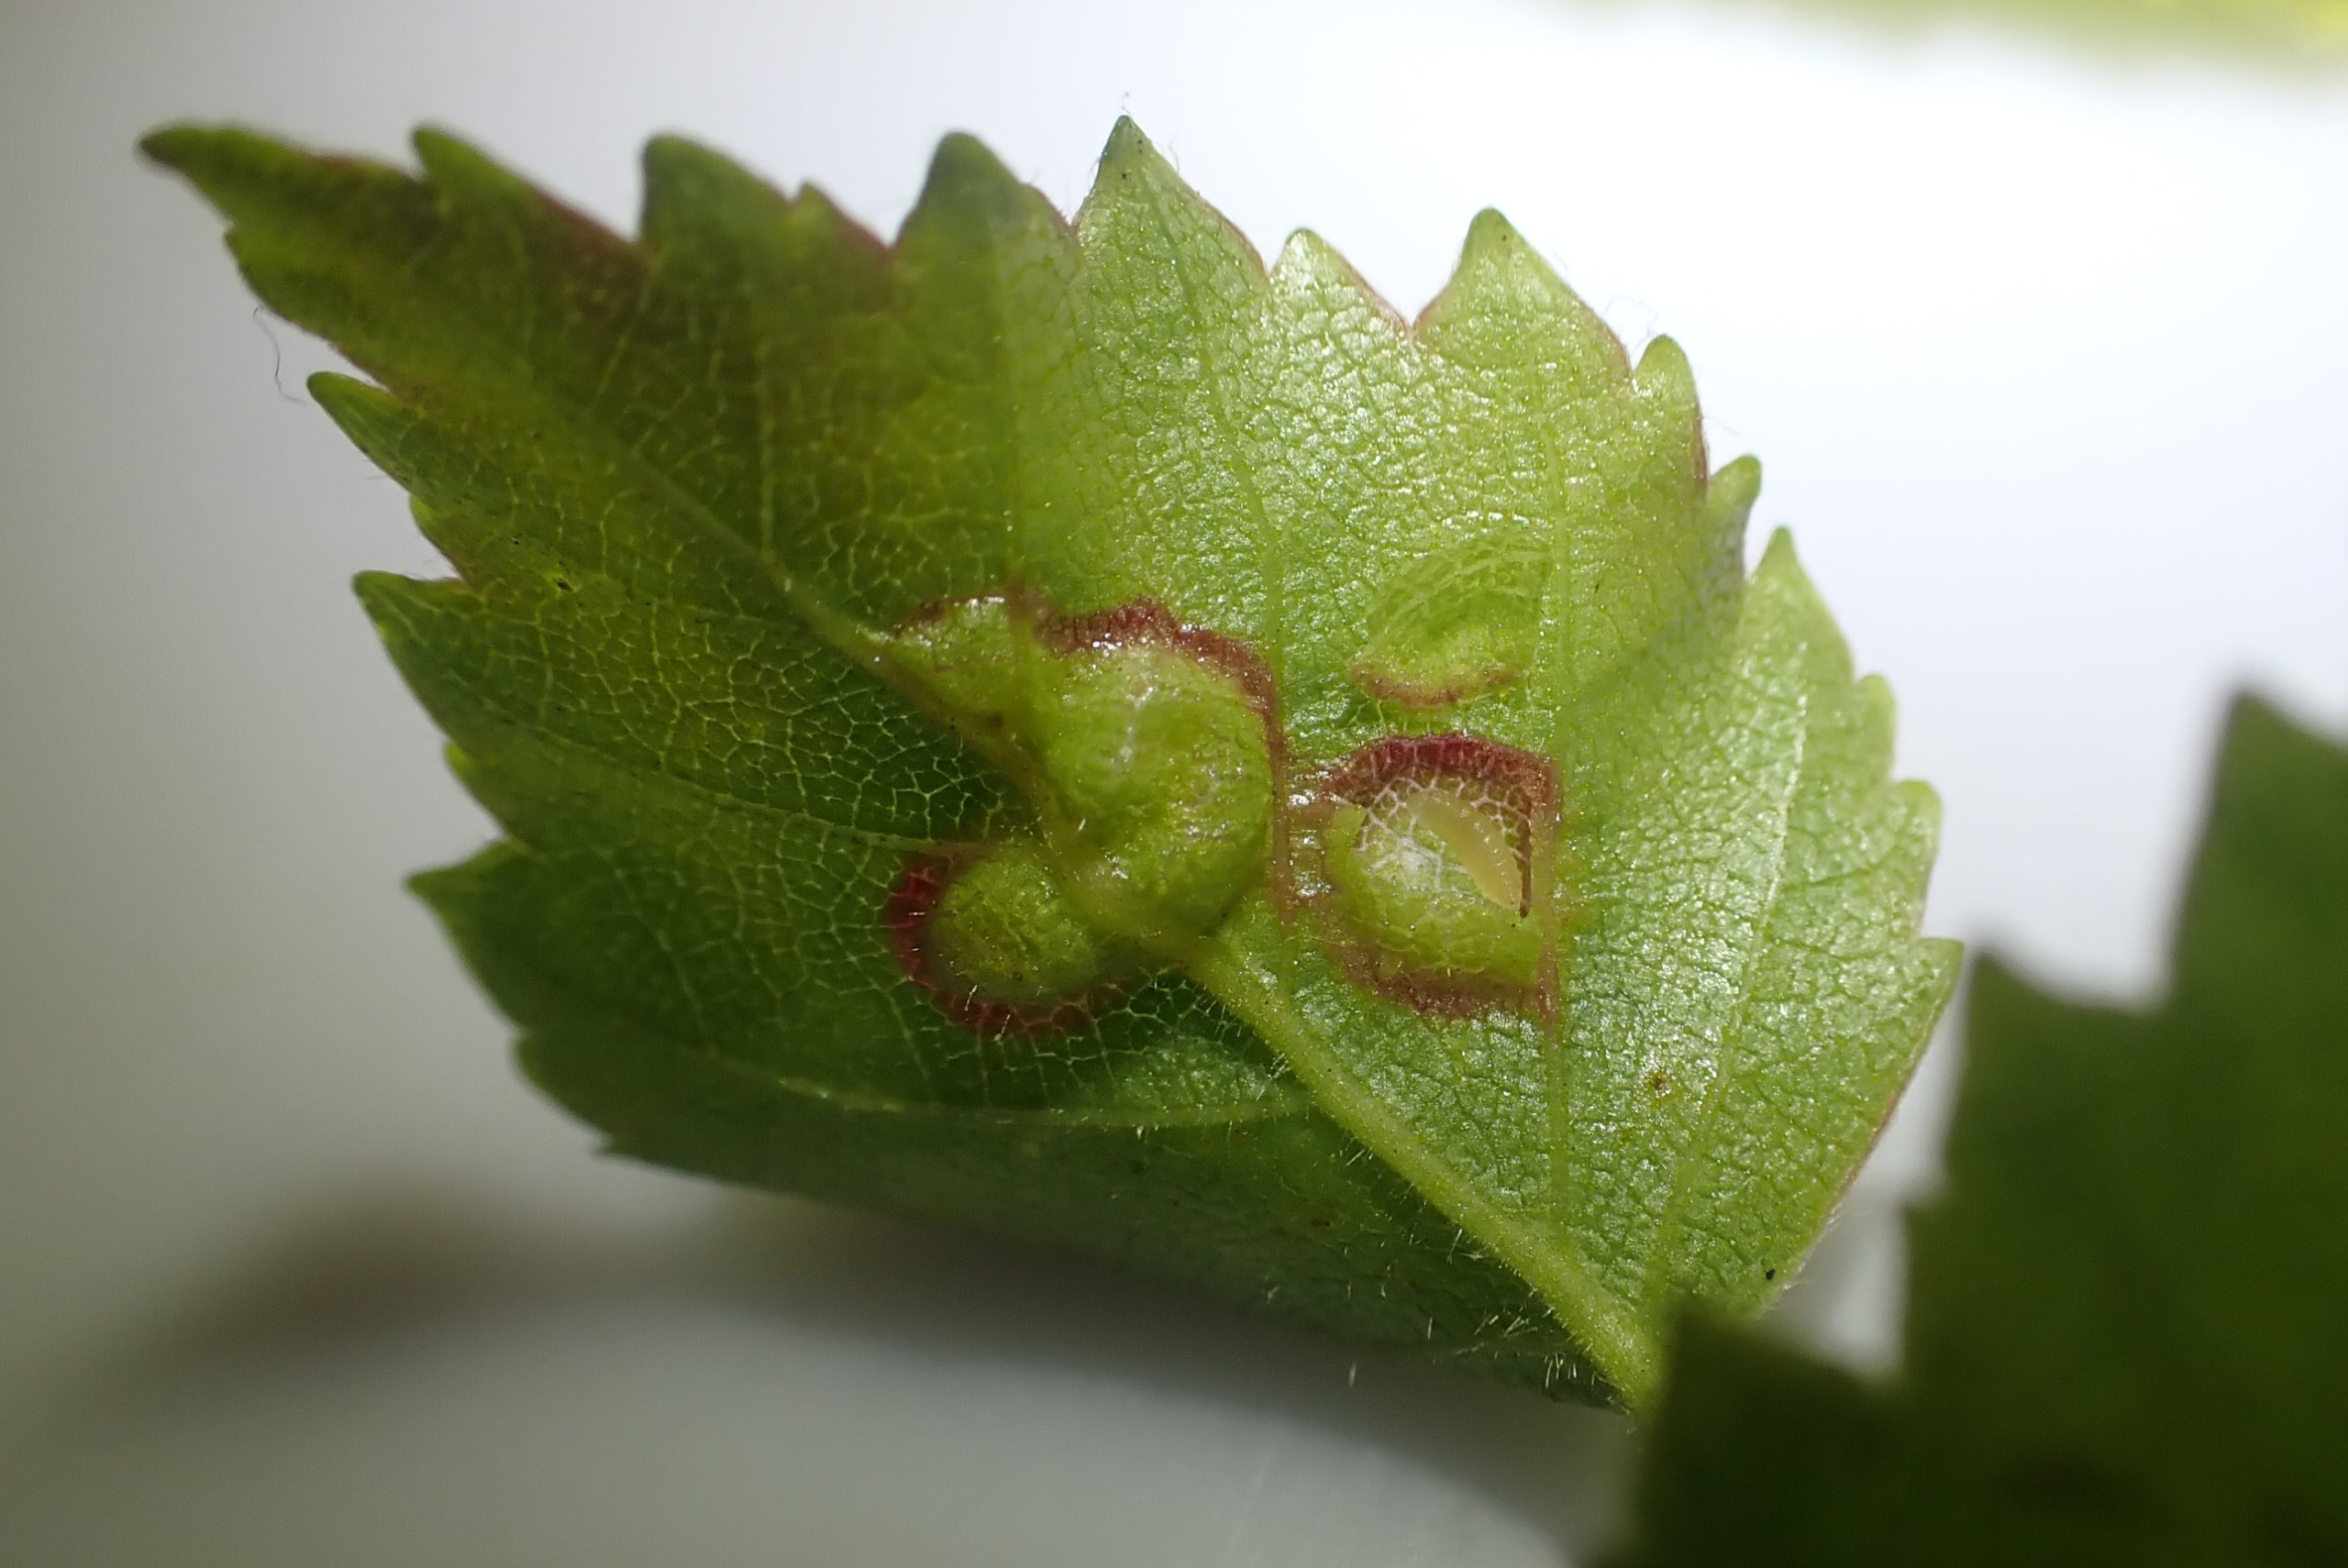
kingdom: Animalia
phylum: Arthropoda
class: Insecta
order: Diptera
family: Cecidomyiidae
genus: Anisostephus
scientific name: Anisostephus betulinus
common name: Birkeblæregalmyg
